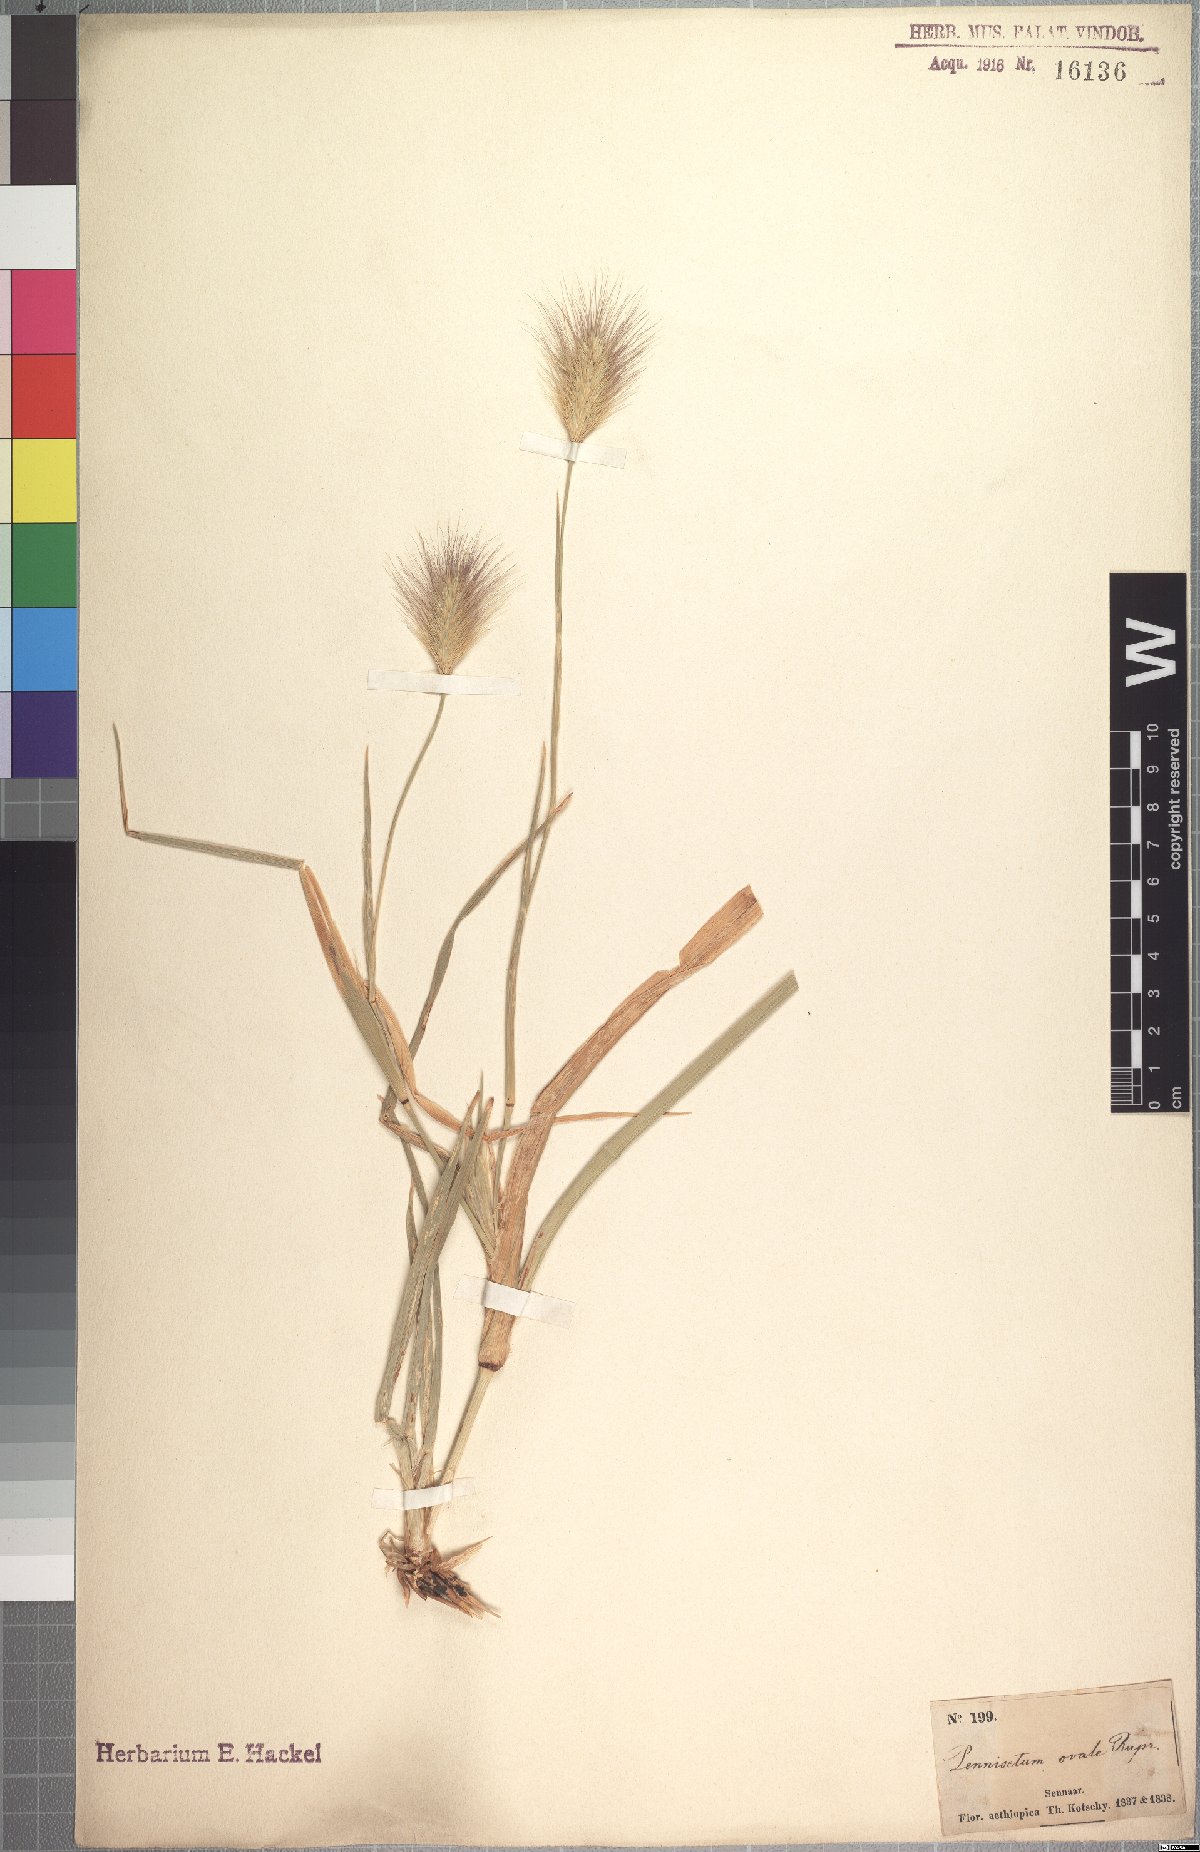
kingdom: Plantae
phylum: Tracheophyta
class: Liliopsida
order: Poales
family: Poaceae
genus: Cenchrus
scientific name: Cenchrus ramosus
